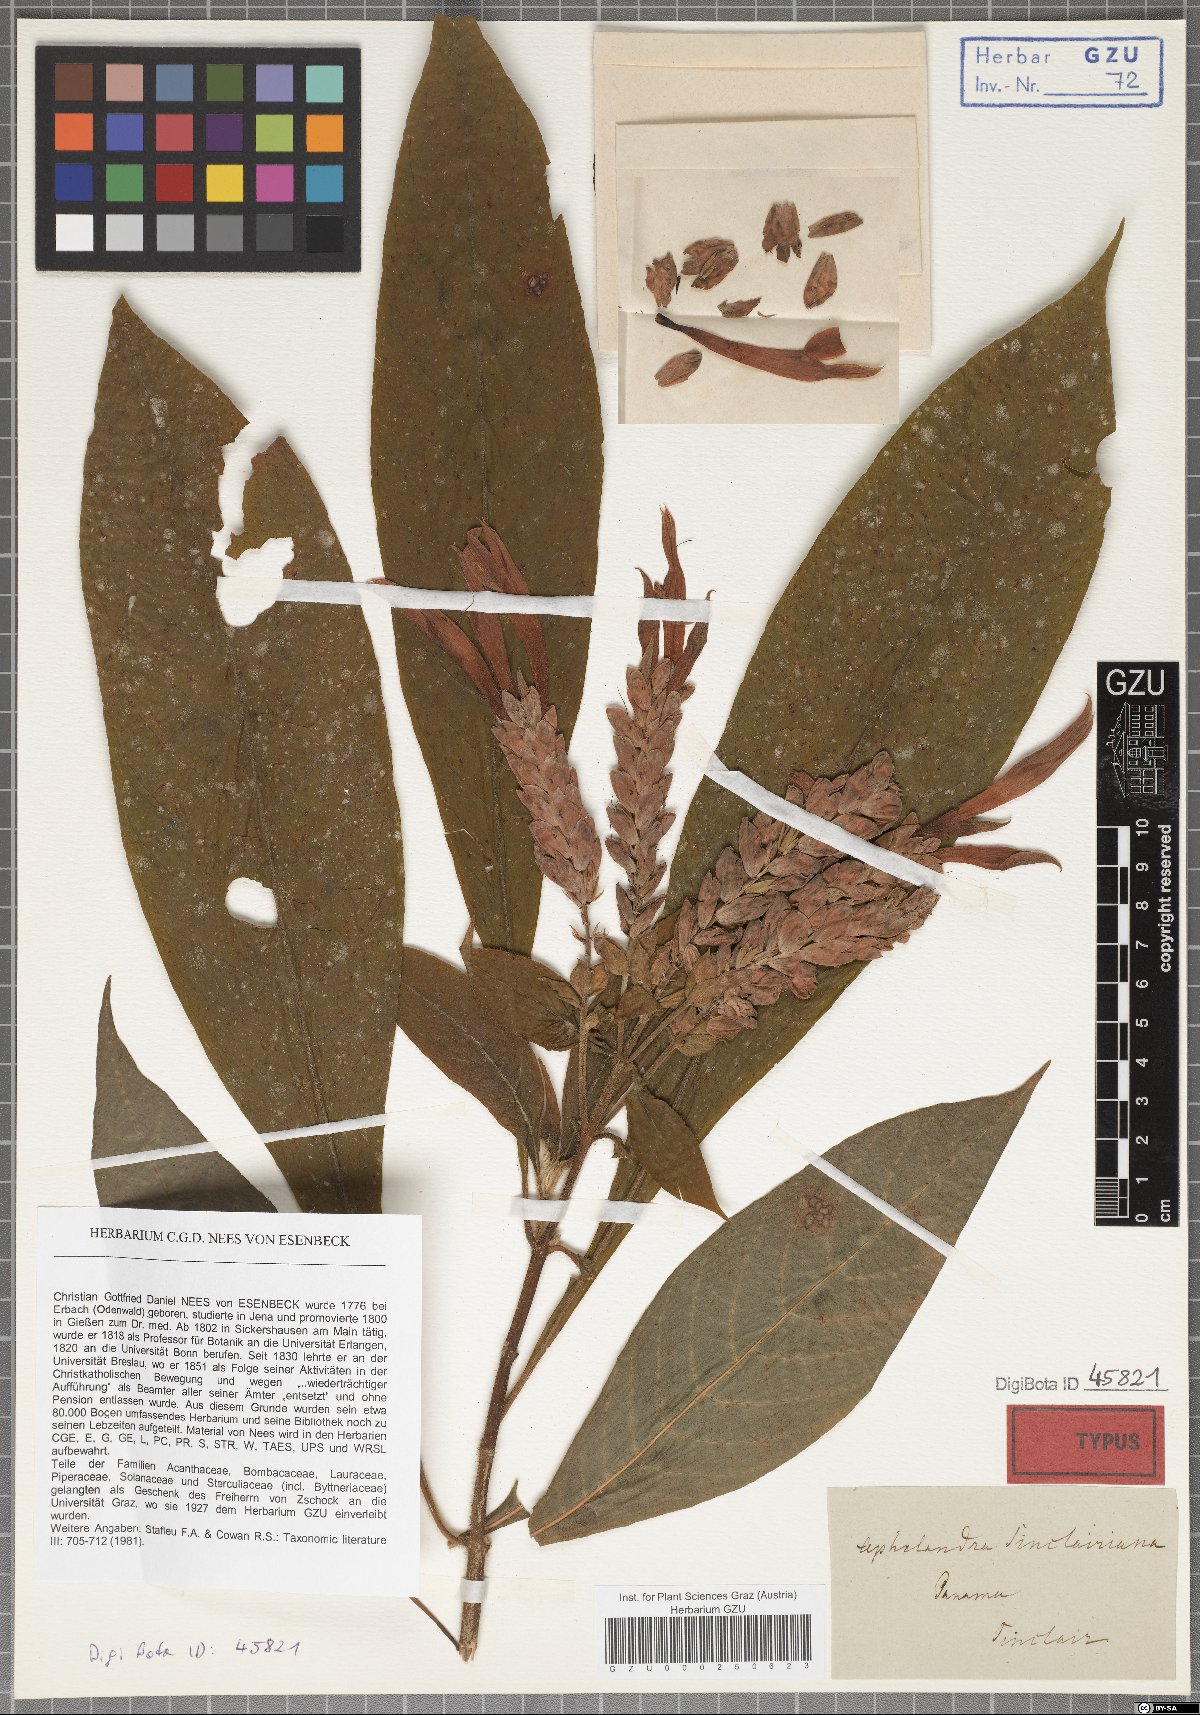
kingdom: Plantae
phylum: Tracheophyta
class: Magnoliopsida
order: Lamiales
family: Acanthaceae
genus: Aphelandra
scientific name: Aphelandra sinclairiana
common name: Coral aphelandra
